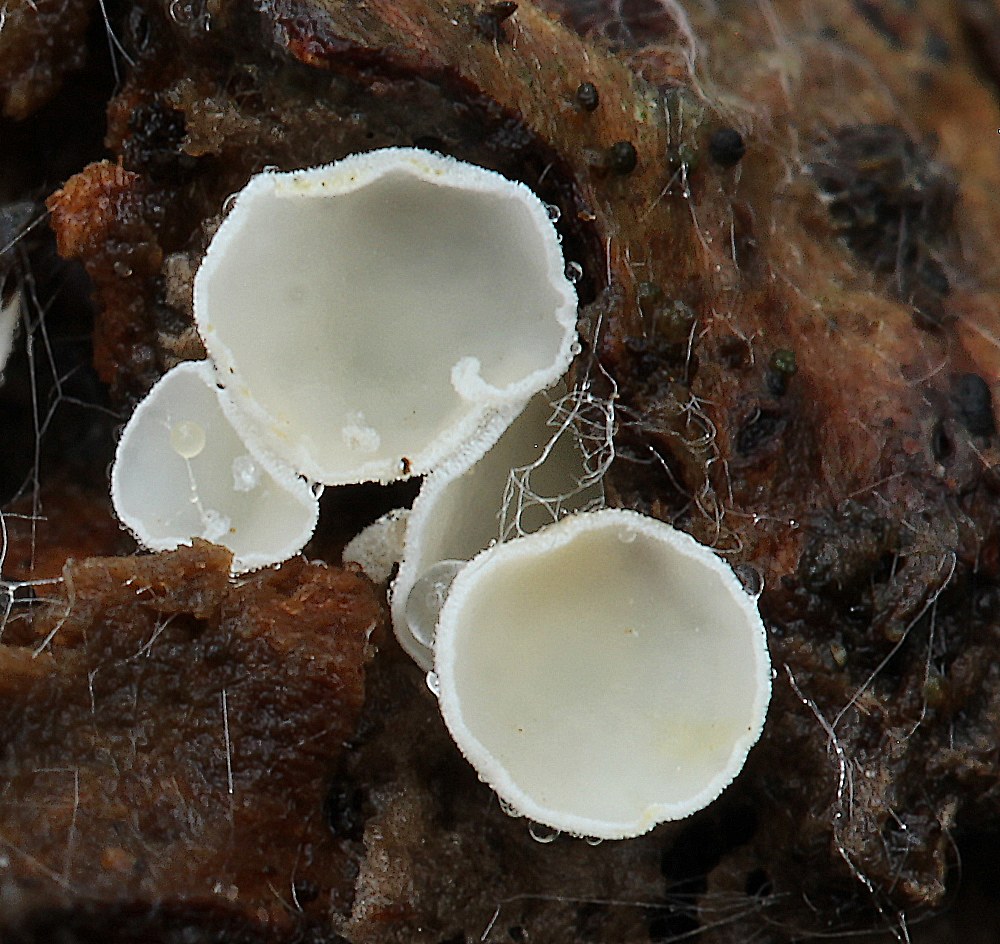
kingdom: Fungi
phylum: Ascomycota
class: Leotiomycetes
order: Helotiales
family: Lachnaceae
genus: Lachnum
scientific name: Lachnum
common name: frynseskive
